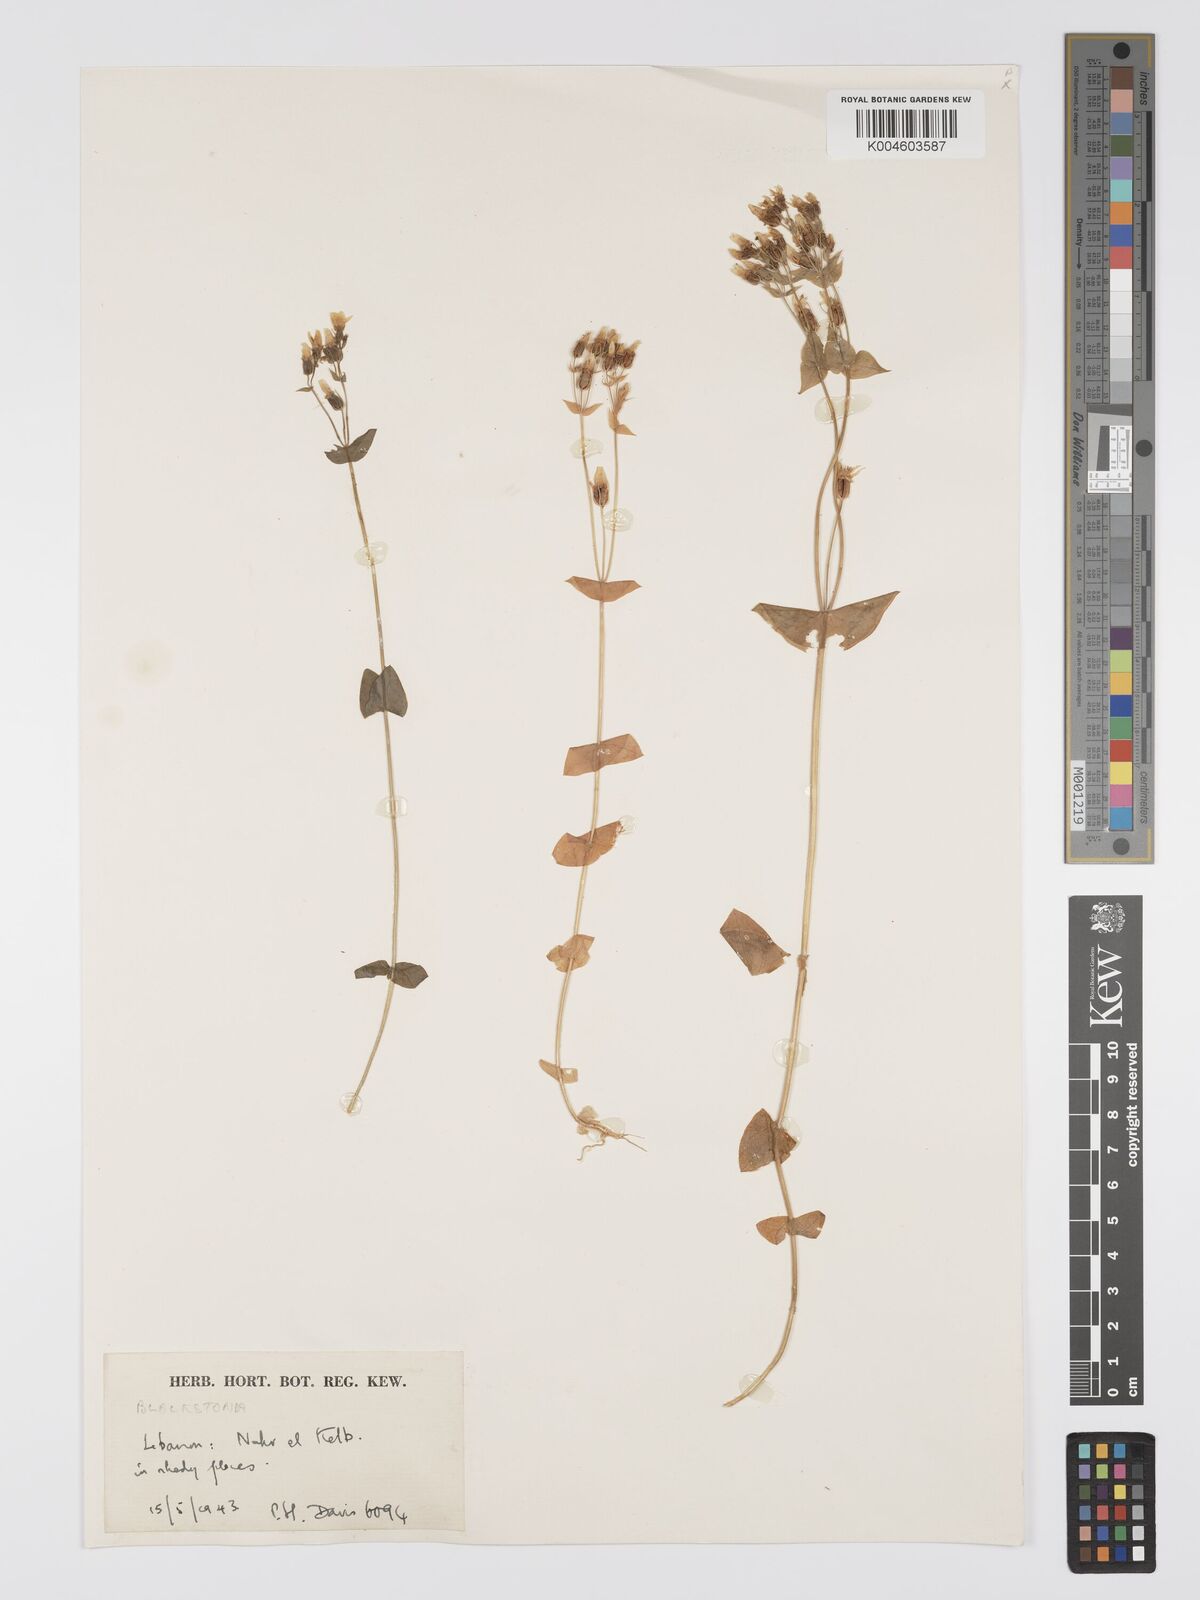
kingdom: Plantae
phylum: Tracheophyta
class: Magnoliopsida
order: Gentianales
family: Gentianaceae
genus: Blackstonia
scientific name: Blackstonia perfoliata
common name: Yellow-wort
